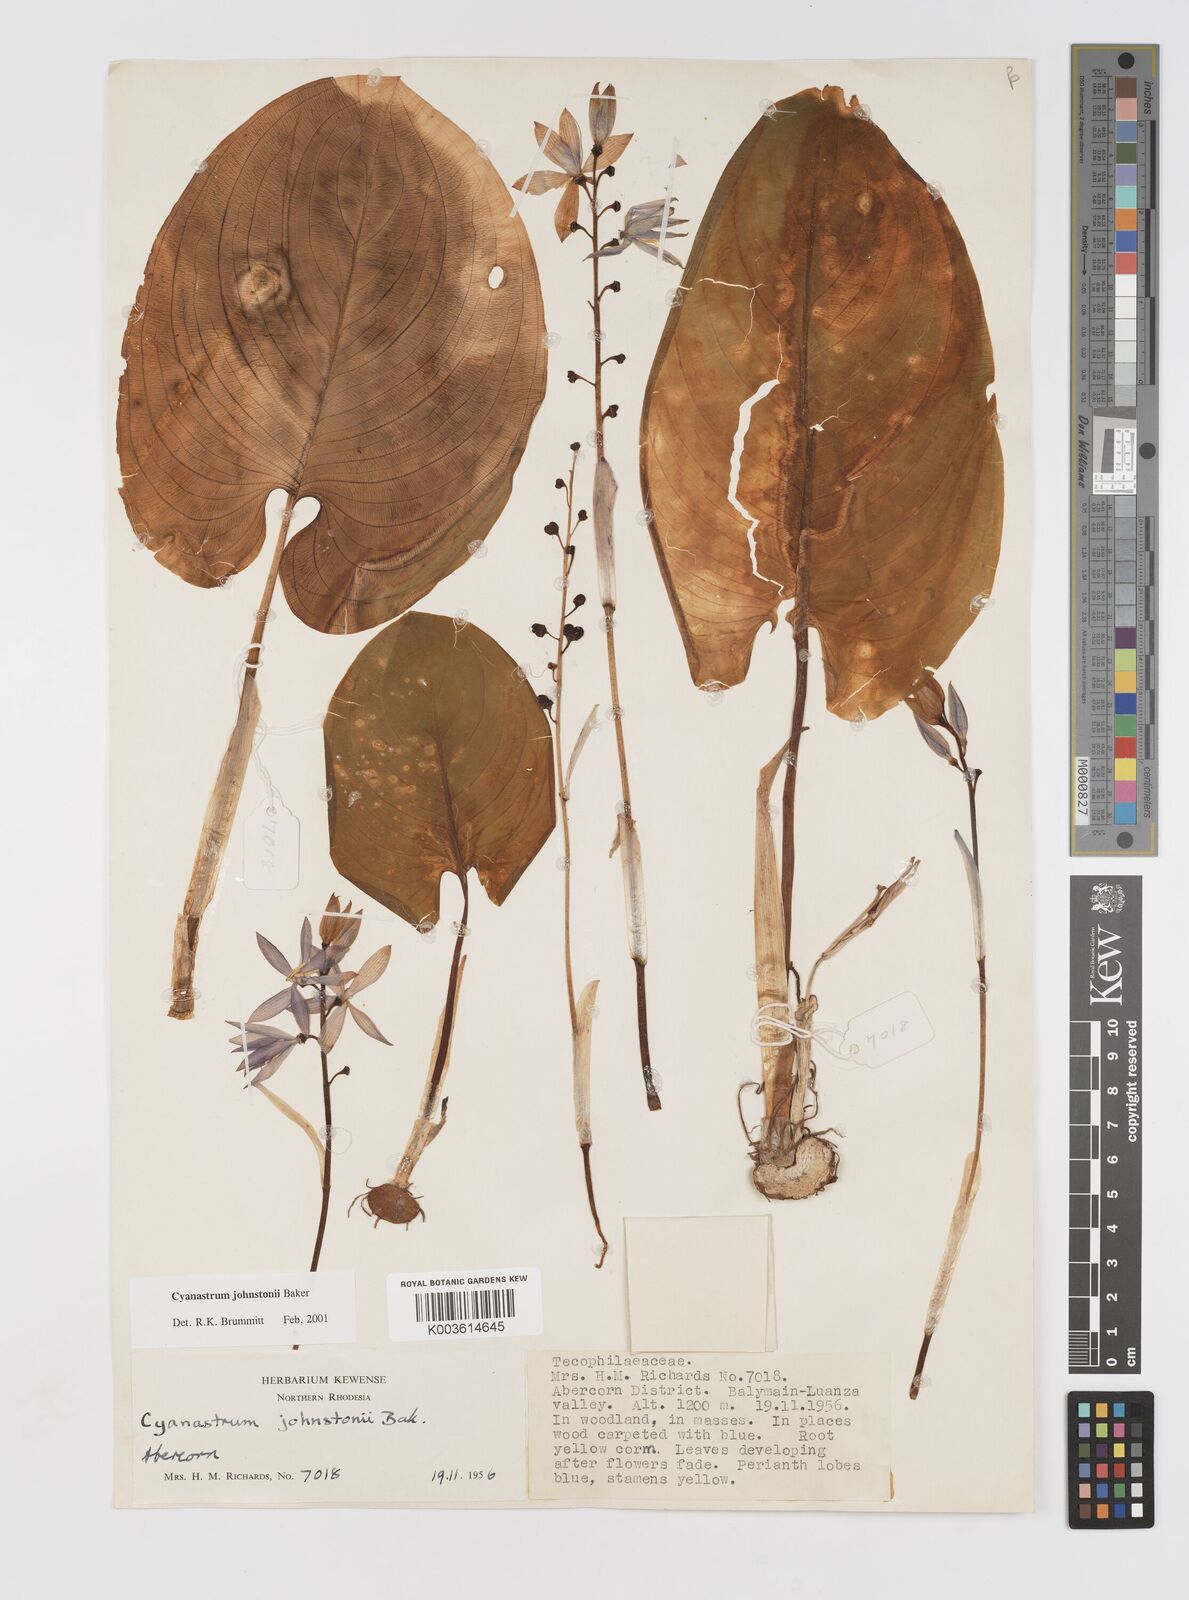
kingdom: Plantae
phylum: Tracheophyta
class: Liliopsida
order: Asparagales
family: Tecophilaeaceae
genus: Cyanastrum
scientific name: Cyanastrum johnstonii
